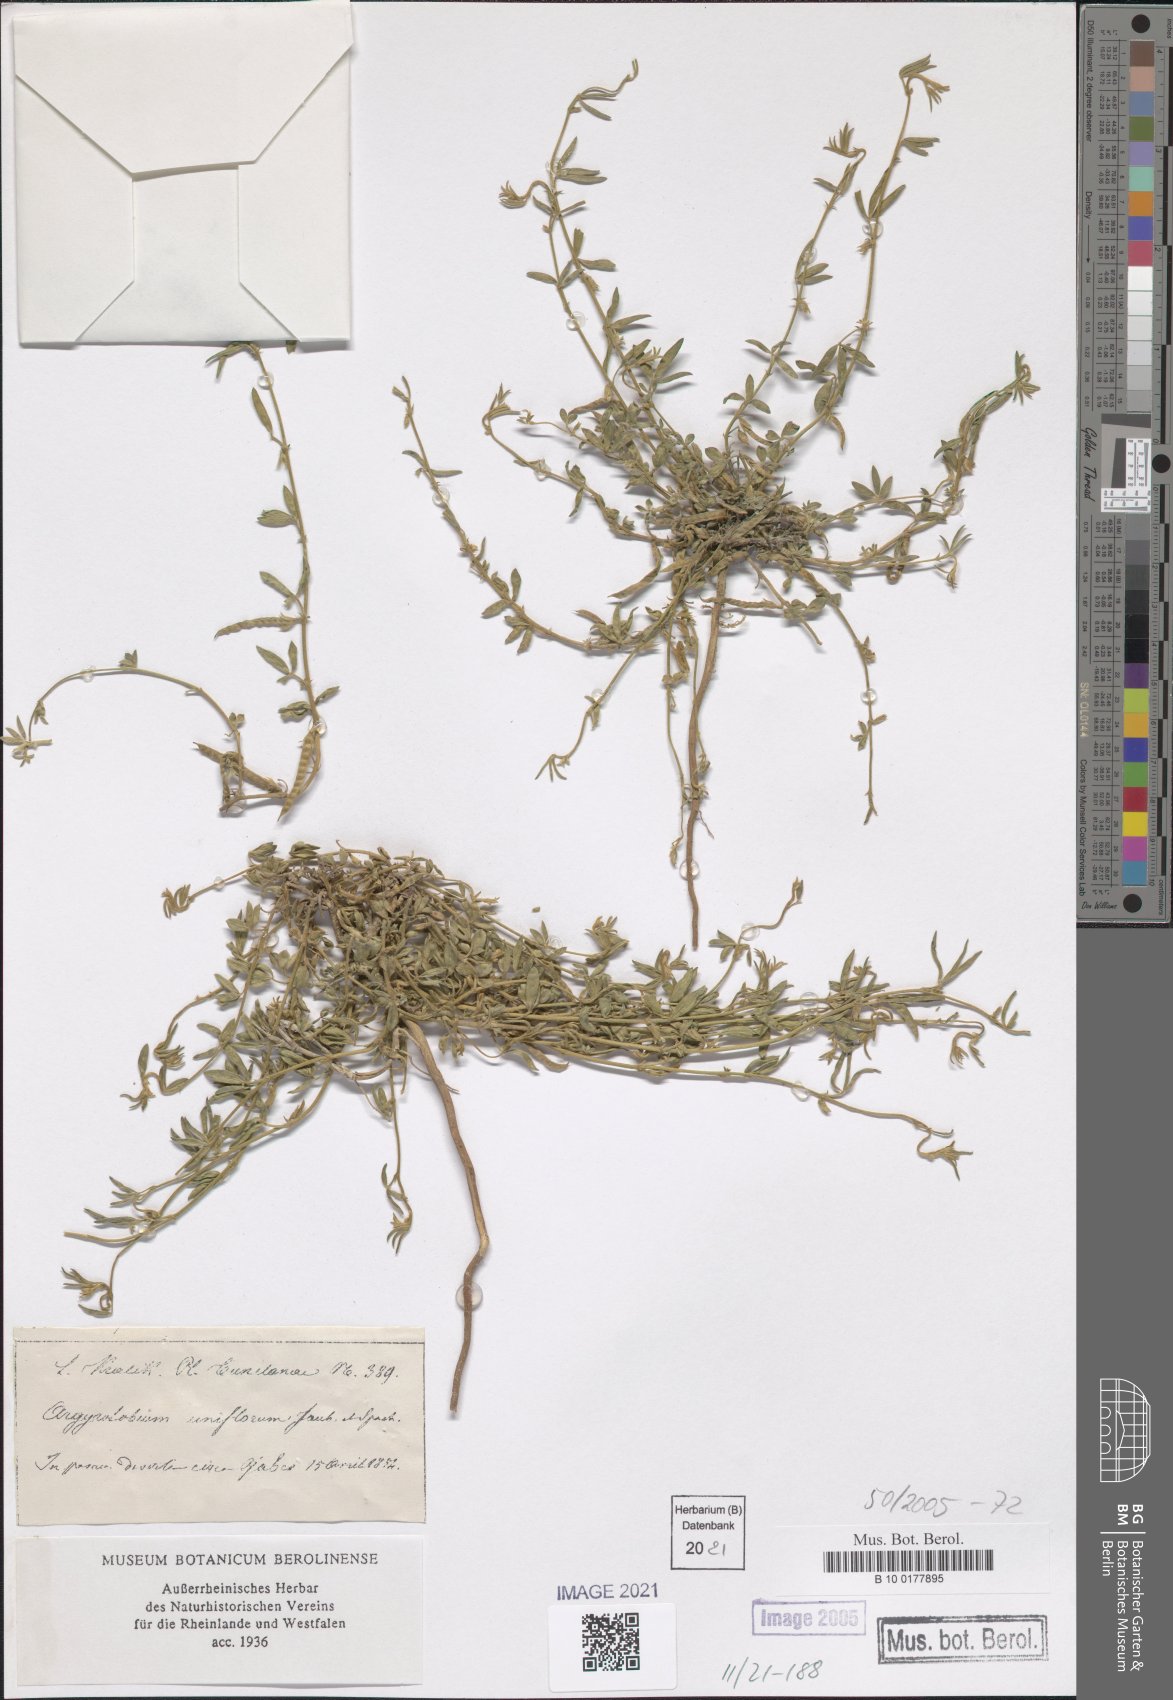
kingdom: Plantae
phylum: Tracheophyta
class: Magnoliopsida
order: Fabales
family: Fabaceae
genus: Argyrolobium
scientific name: Argyrolobium uniflorum
